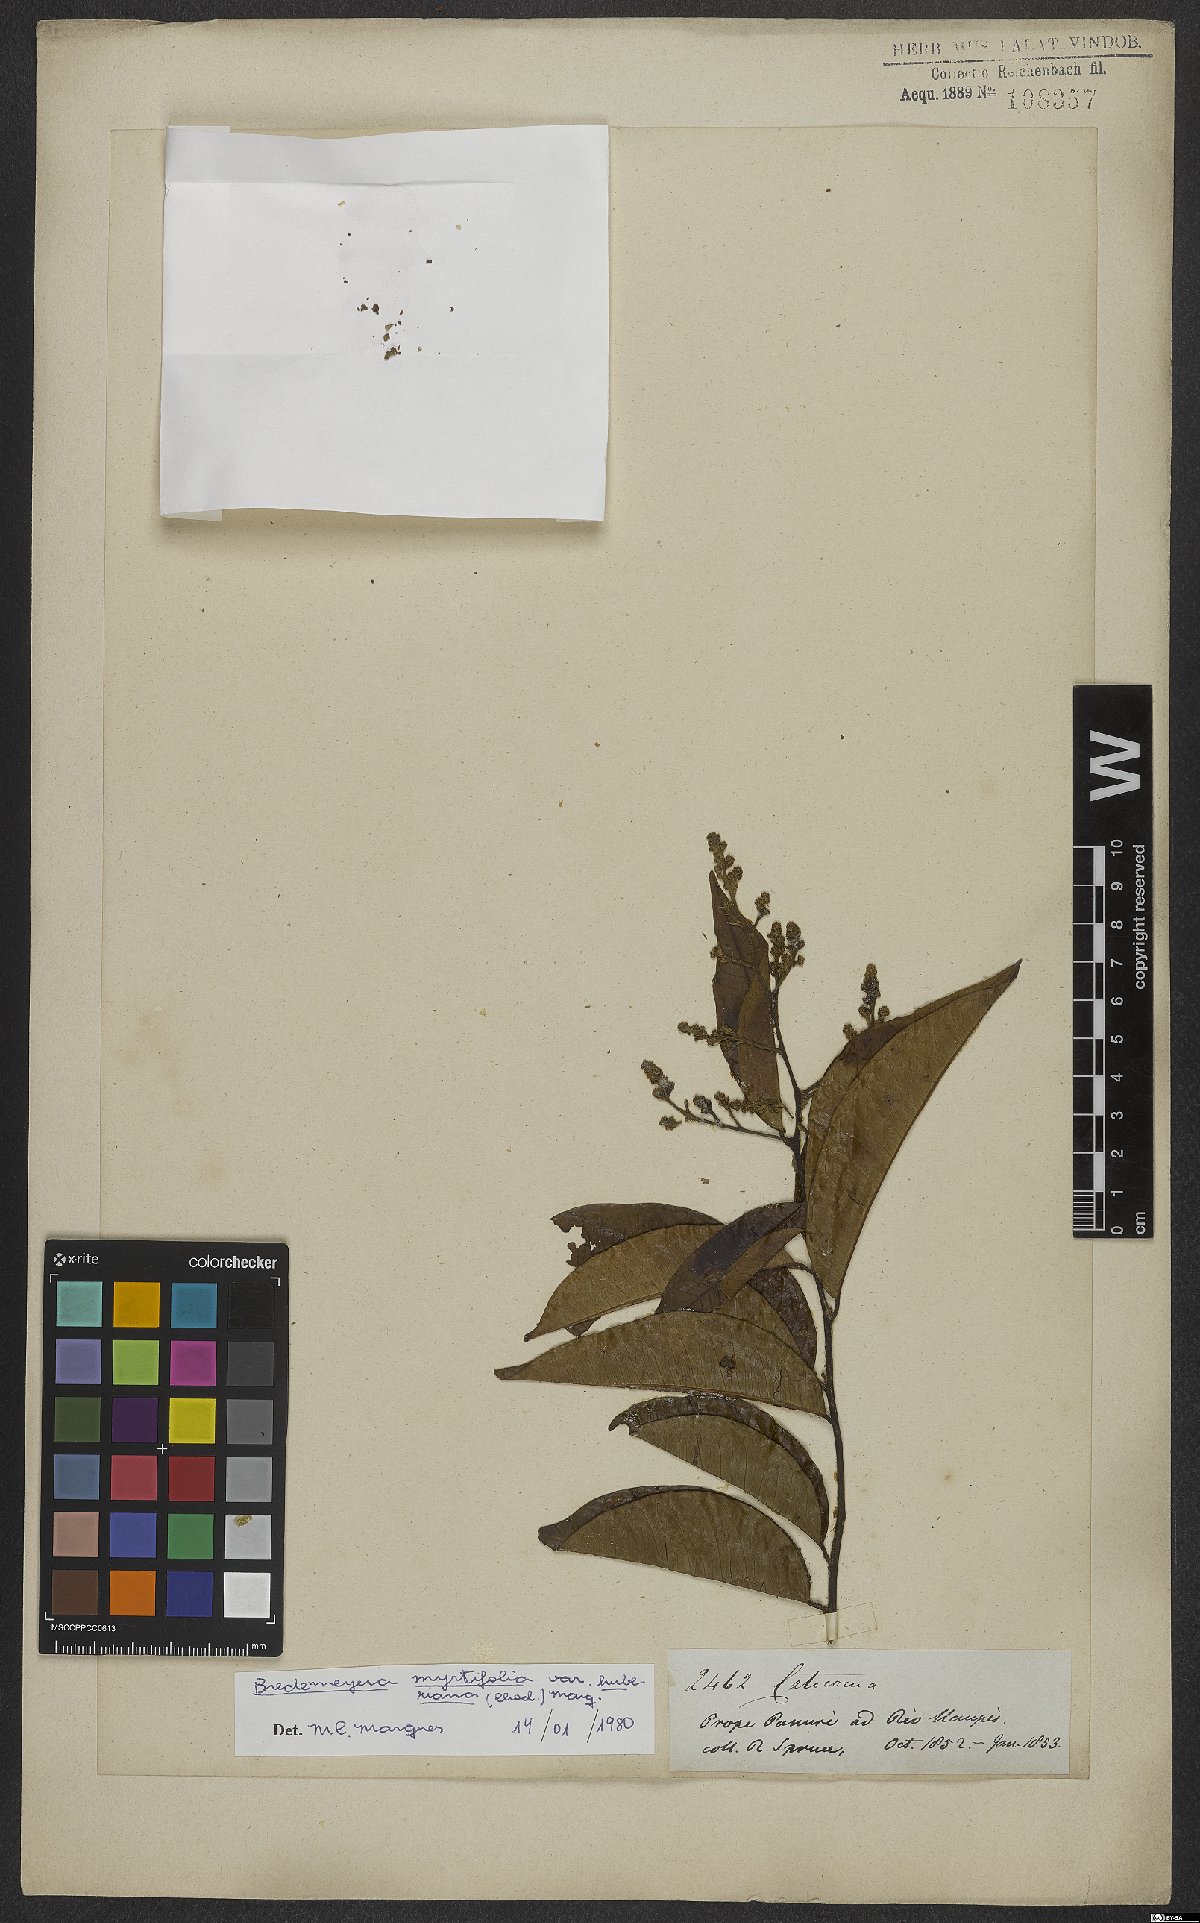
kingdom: Plantae
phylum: Tracheophyta
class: Magnoliopsida
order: Fabales
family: Polygalaceae
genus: Bredemeyera
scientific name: Bredemeyera myrtifolia
